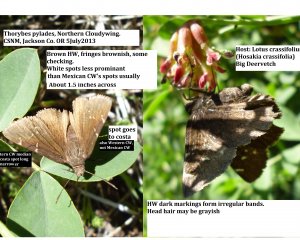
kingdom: Animalia
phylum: Arthropoda
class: Insecta
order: Lepidoptera
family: Hesperiidae
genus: Autochton
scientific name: Autochton
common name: Northern Cloudywing
